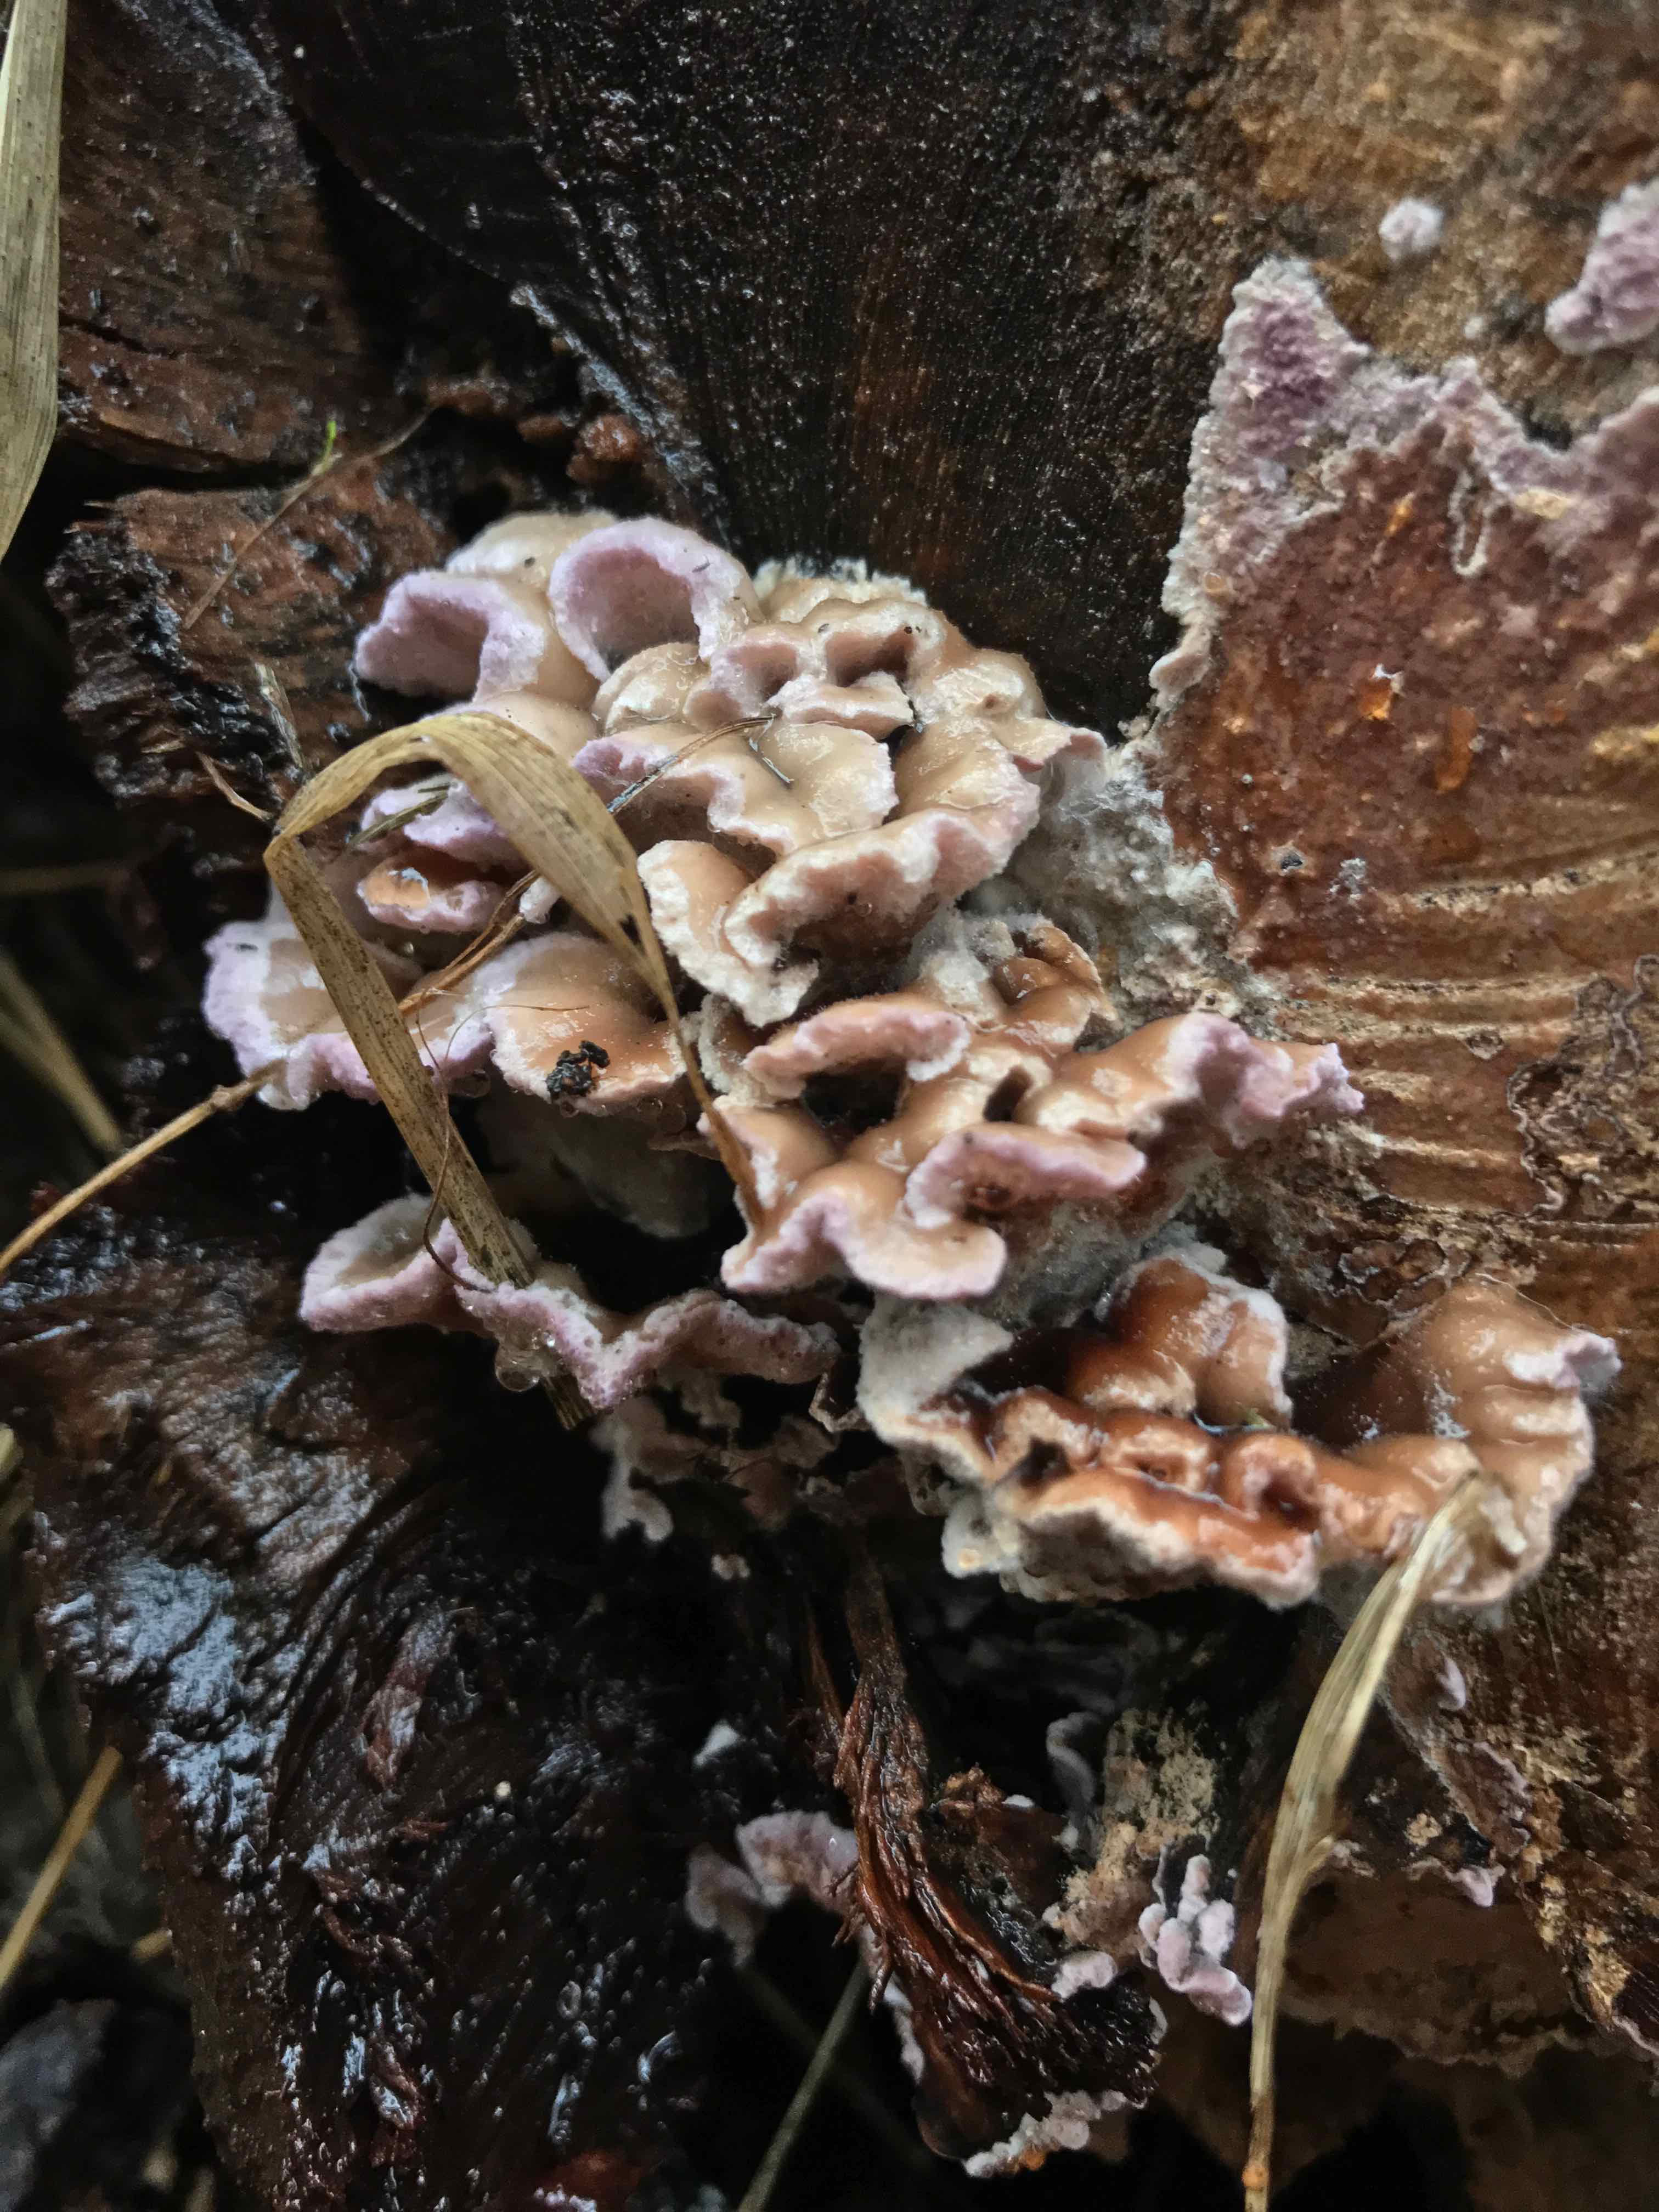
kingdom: Fungi
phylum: Basidiomycota
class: Agaricomycetes
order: Agaricales
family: Cyphellaceae
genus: Chondrostereum
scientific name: Chondrostereum purpureum
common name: purpurlædersvamp
